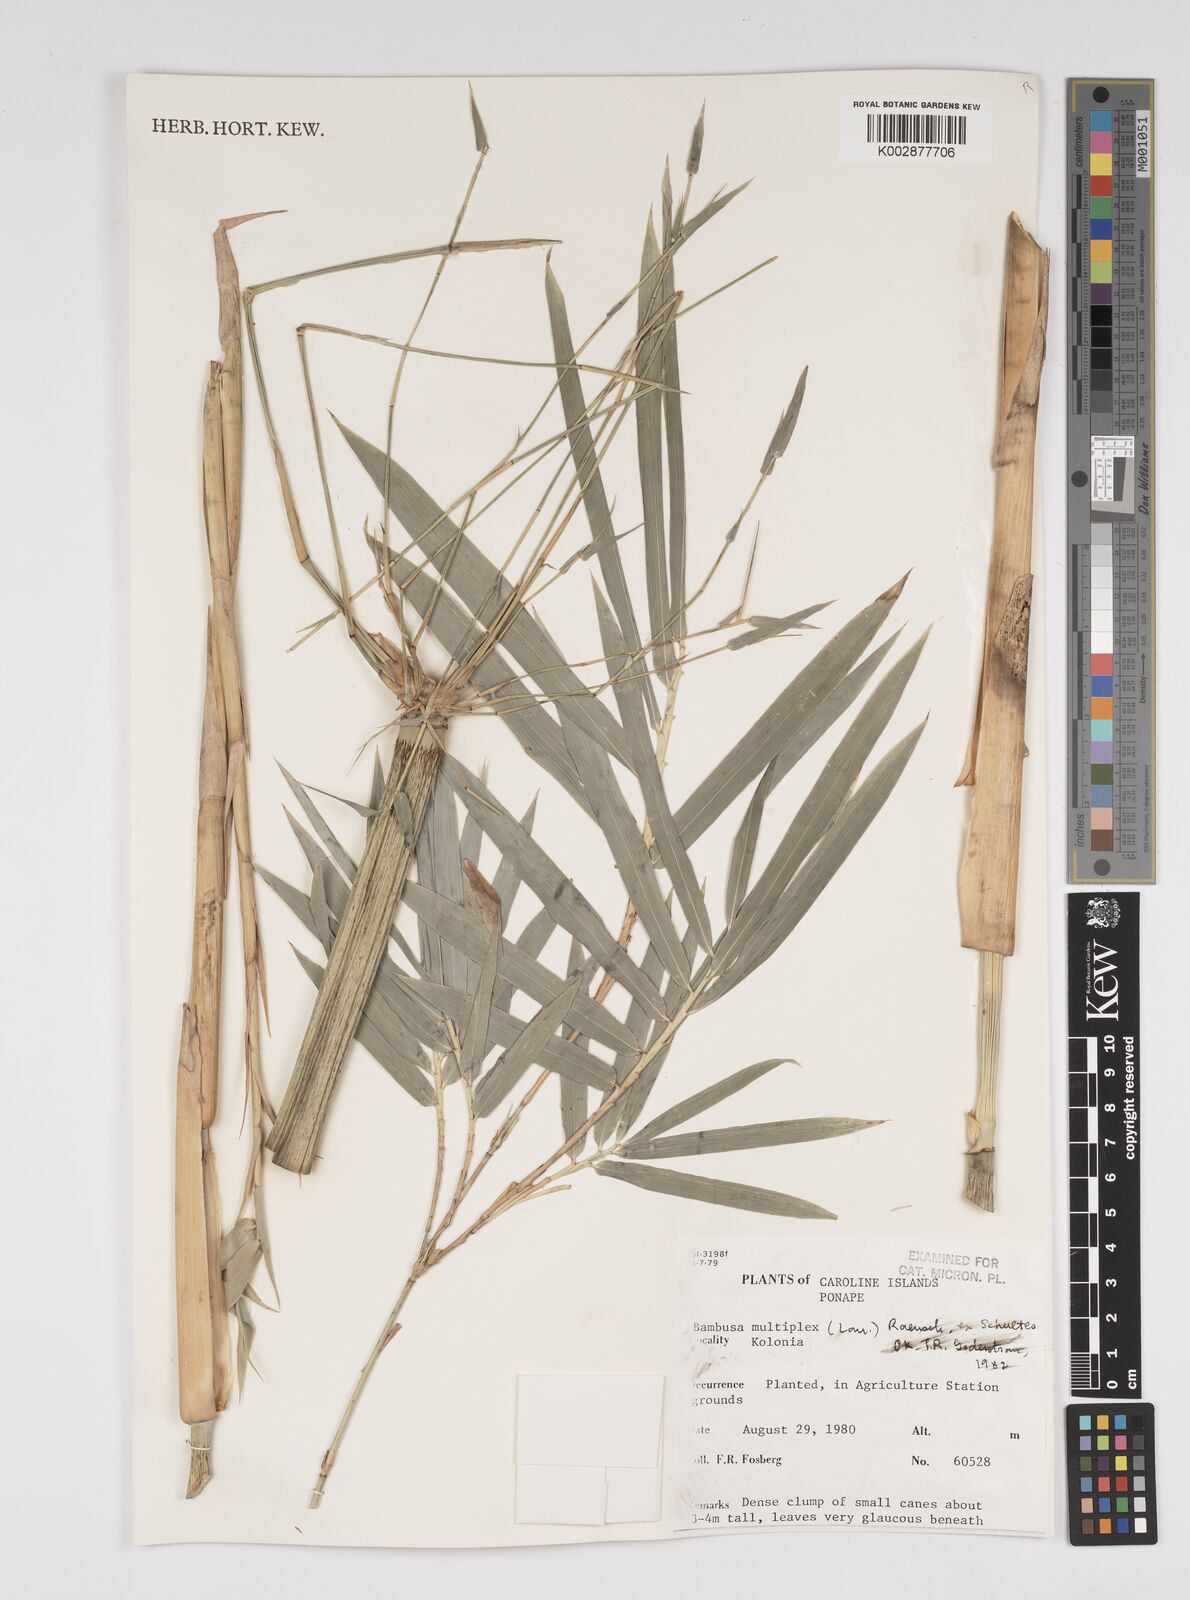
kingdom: Plantae
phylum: Tracheophyta
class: Liliopsida
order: Poales
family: Poaceae
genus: Bambusa
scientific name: Bambusa multiplex
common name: Hedge bamboo
